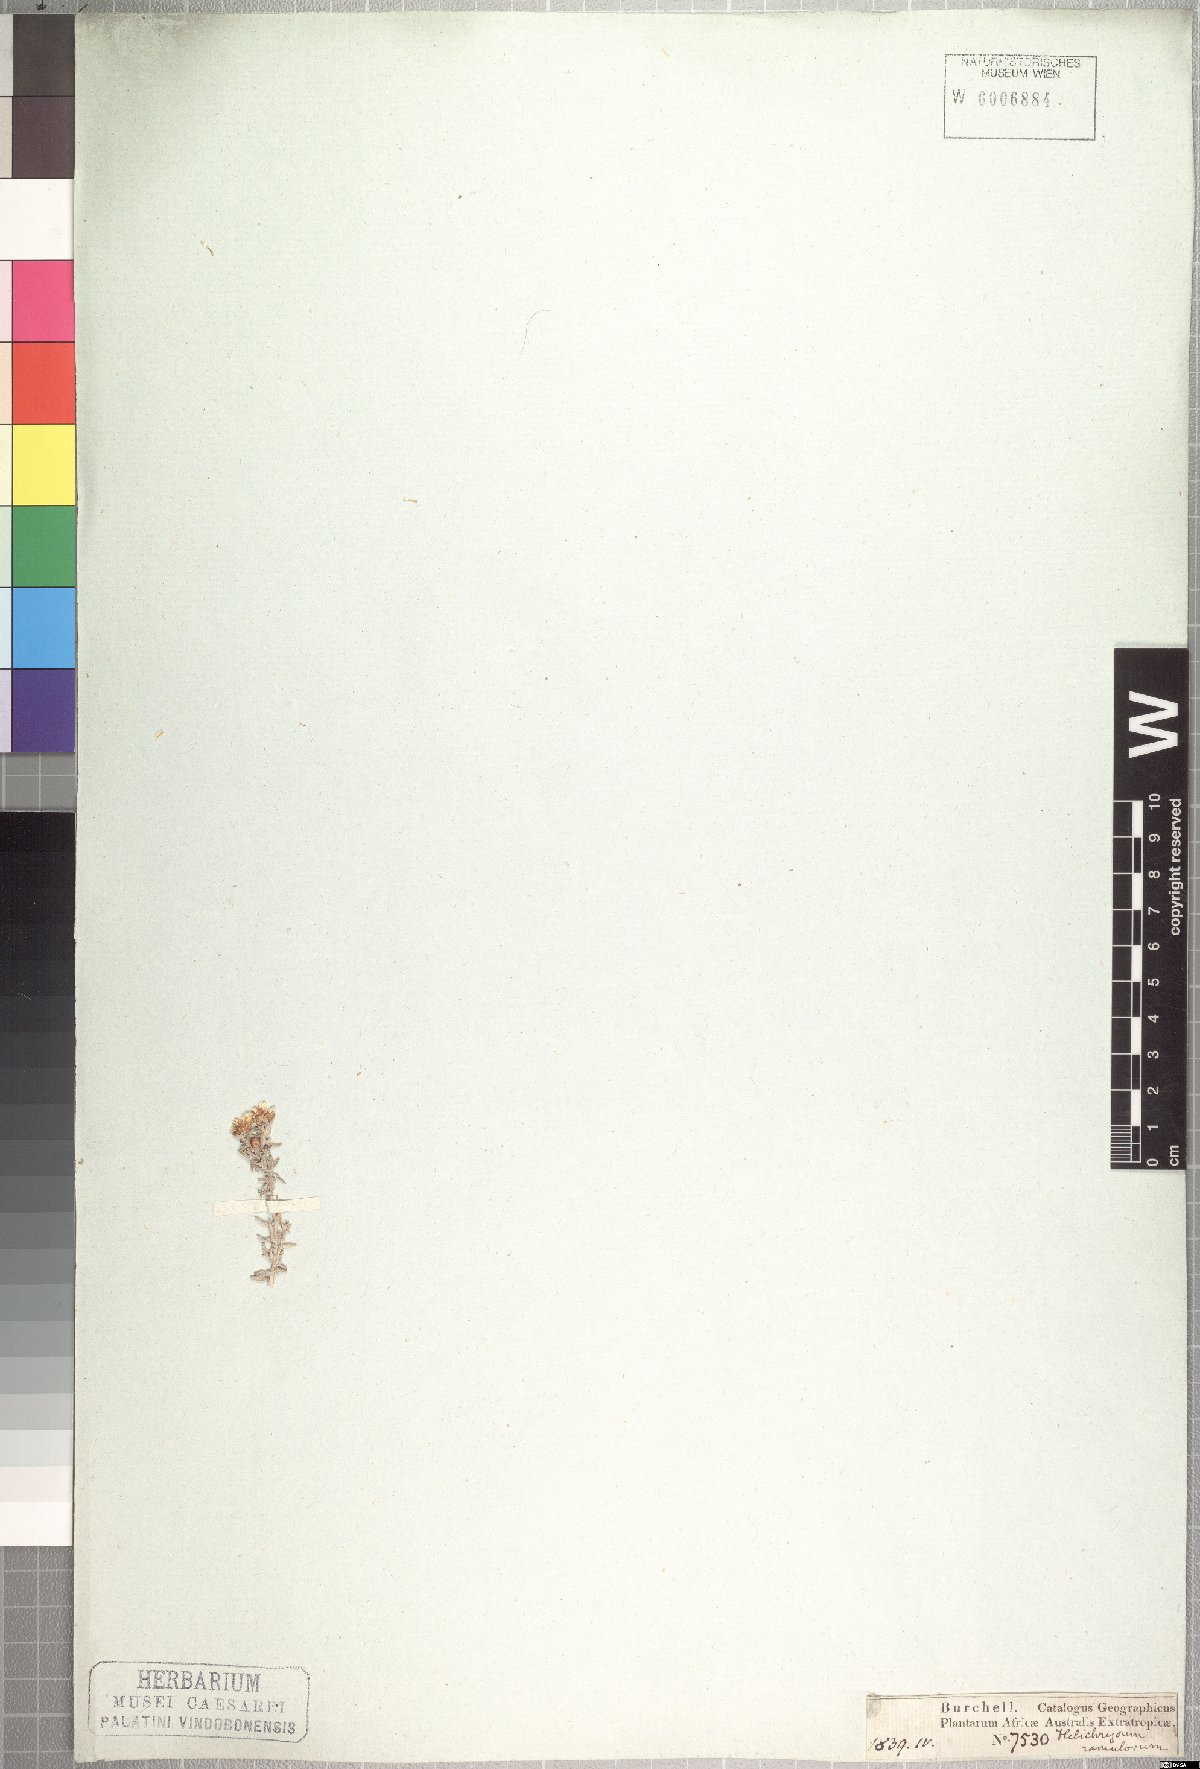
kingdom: Plantae
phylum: Tracheophyta
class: Magnoliopsida
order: Asterales
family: Asteraceae
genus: Helichrysum
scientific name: Helichrysum ramulosum
